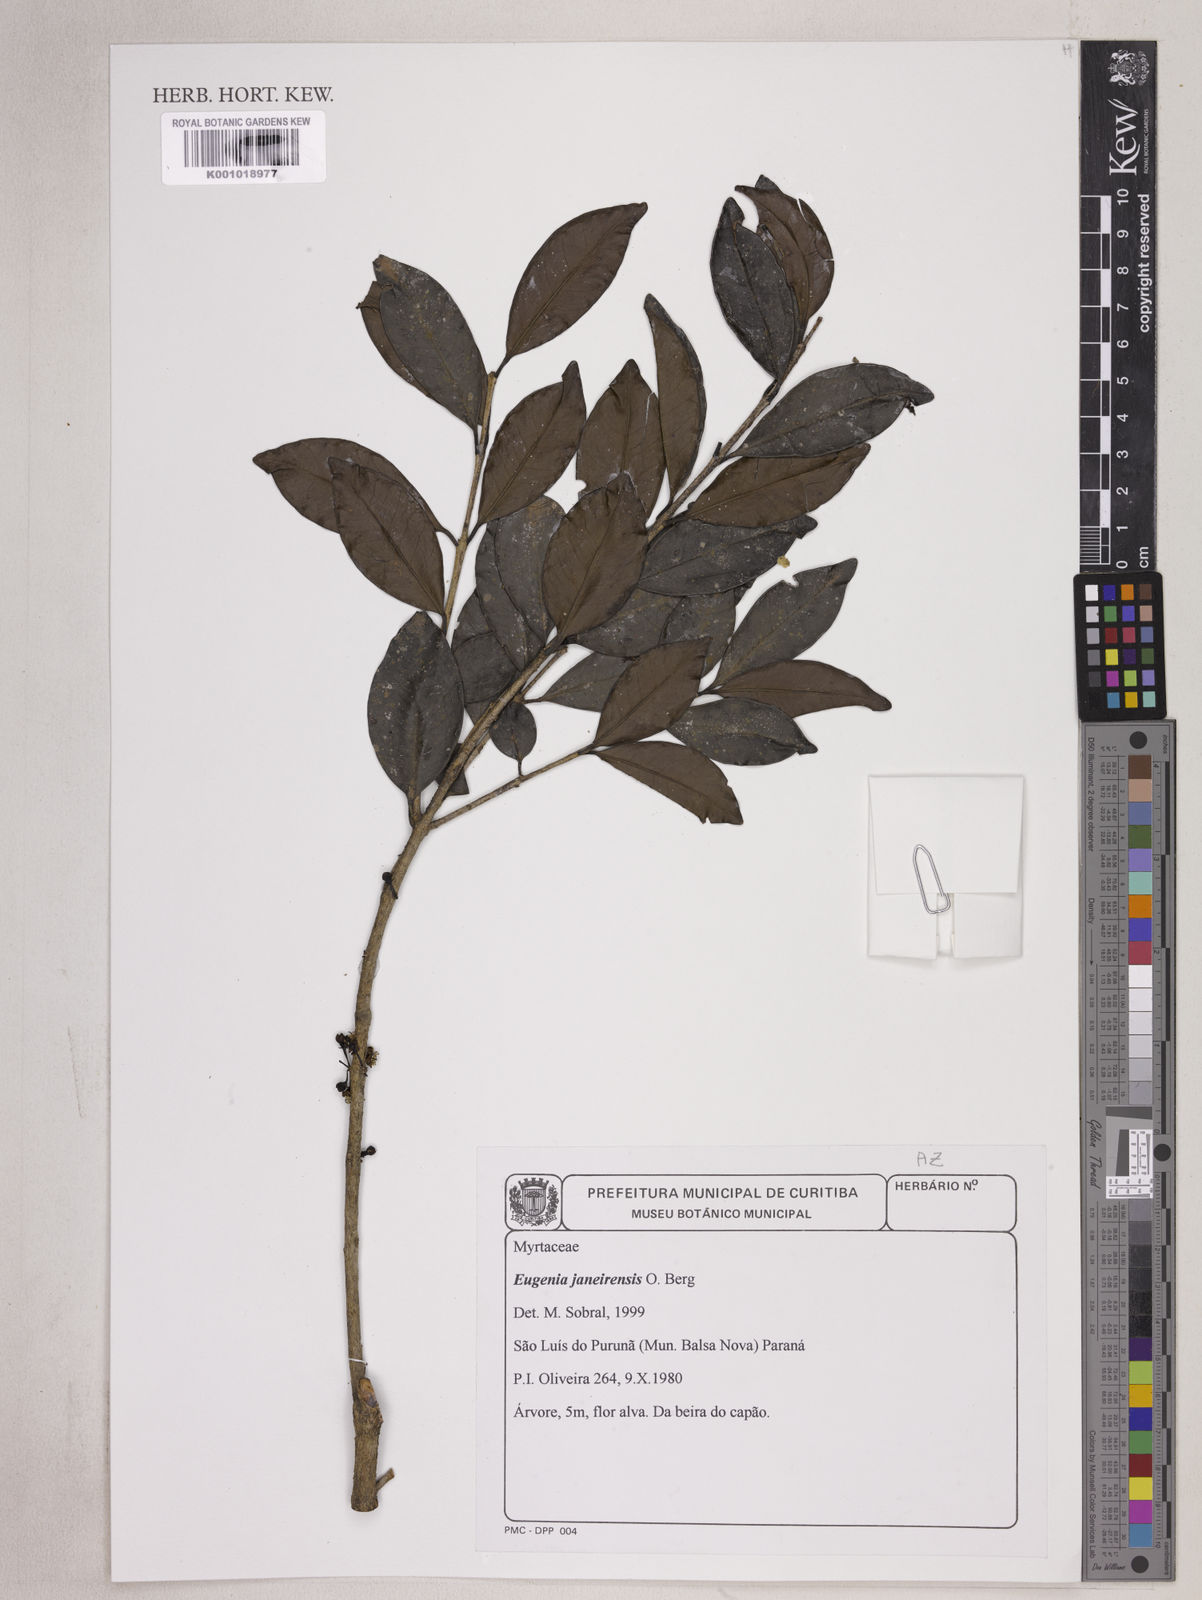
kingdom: Plantae
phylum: Tracheophyta
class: Magnoliopsida
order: Myrtales
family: Myrtaceae
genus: Eugenia
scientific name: Eugenia janeirensis
